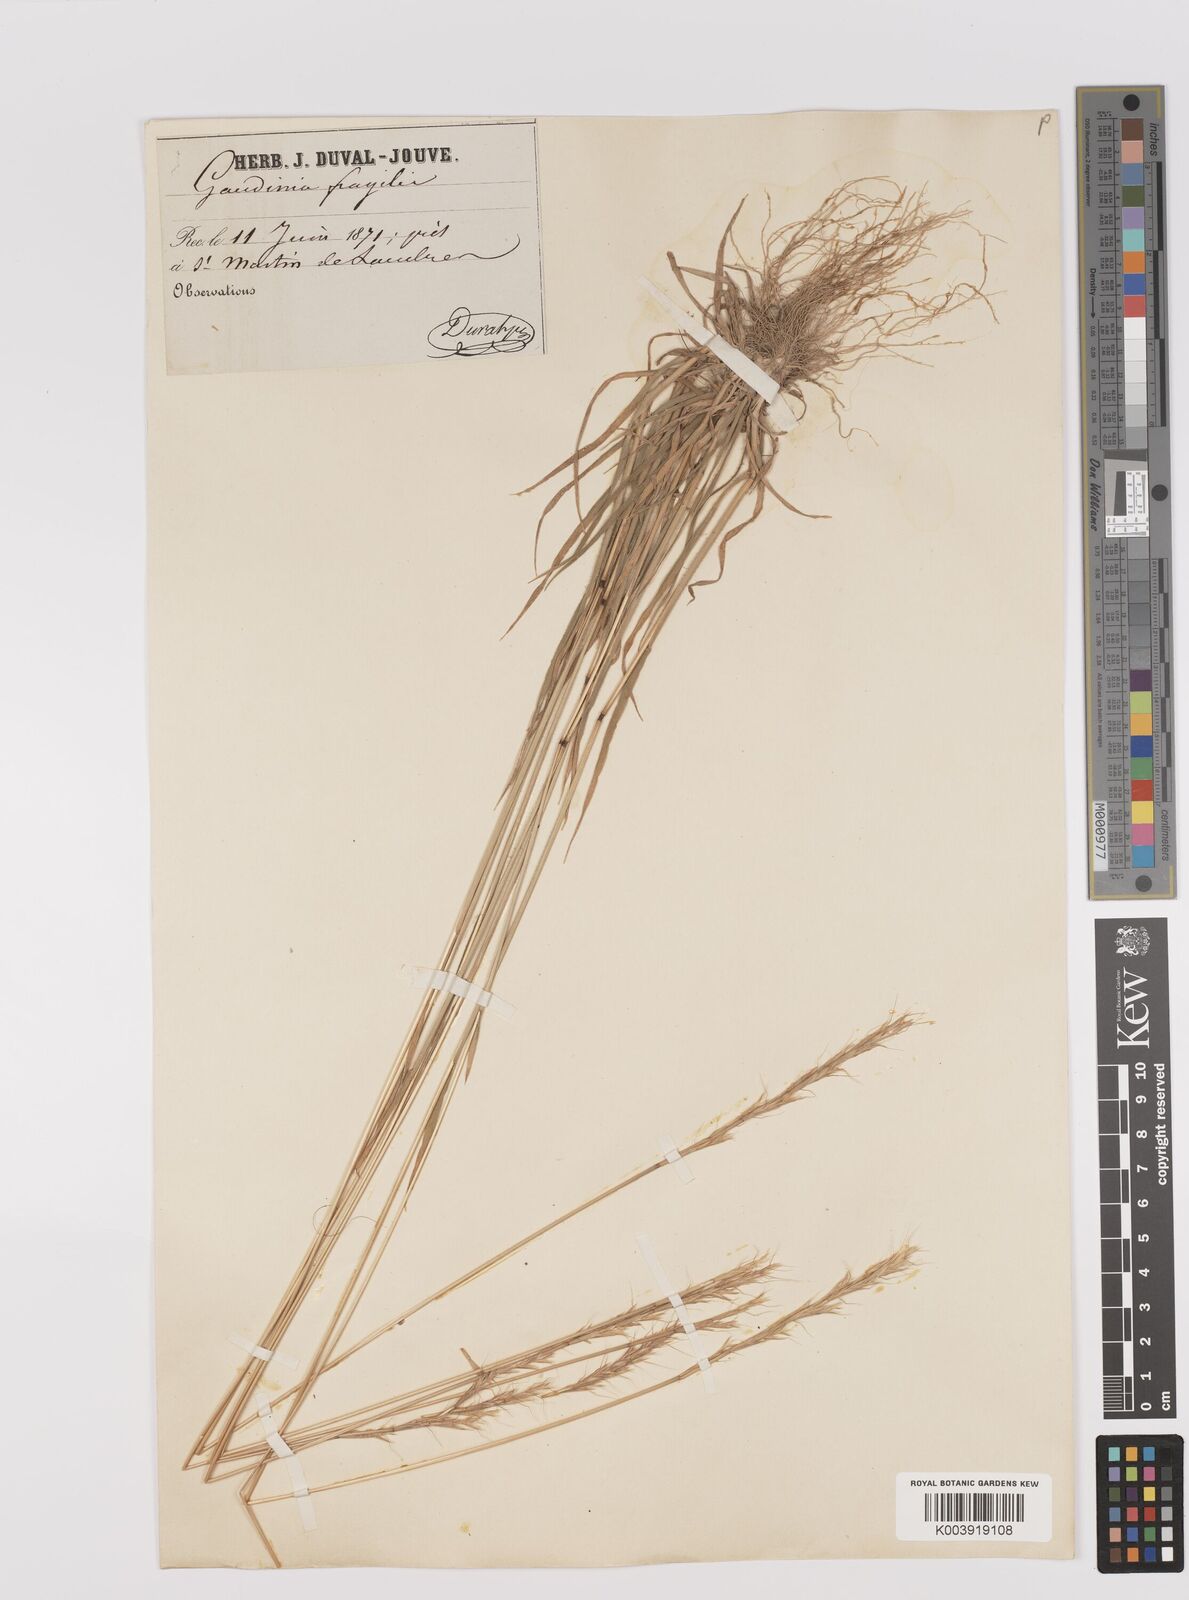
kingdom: Plantae
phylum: Tracheophyta
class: Liliopsida
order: Poales
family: Poaceae
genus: Gaudinia
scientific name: Gaudinia fragilis
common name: French oat-grass
